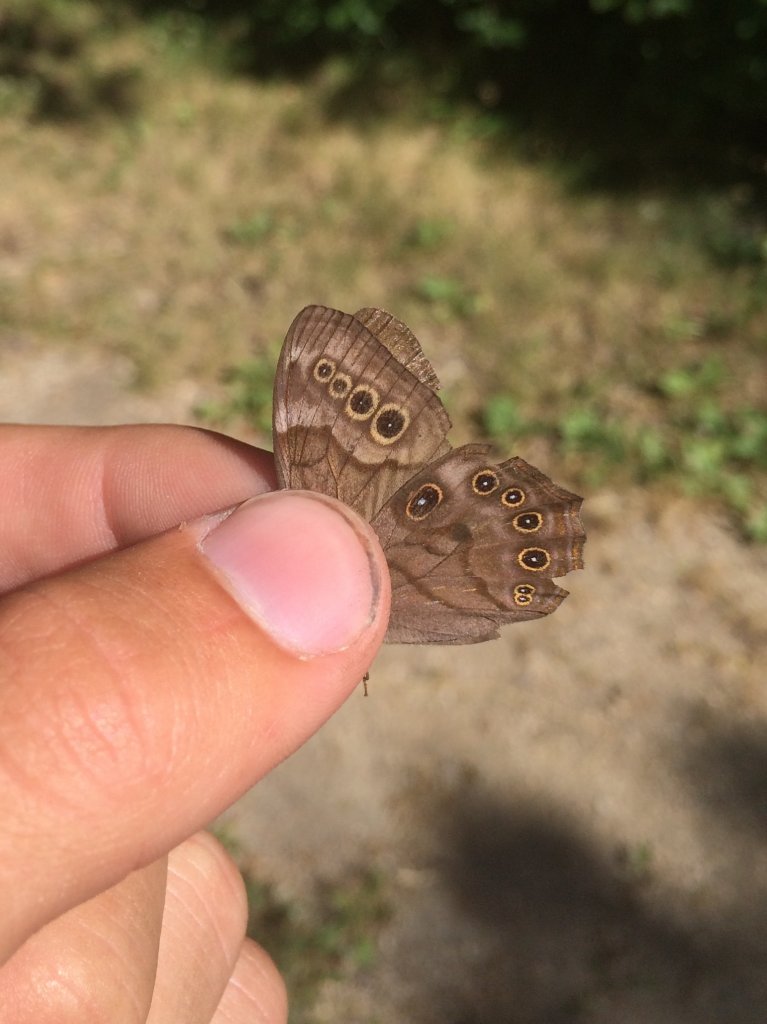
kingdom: Animalia
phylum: Arthropoda
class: Insecta
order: Lepidoptera
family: Nymphalidae
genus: Lethe
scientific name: Lethe anthedon
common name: Northern Pearly-Eye
